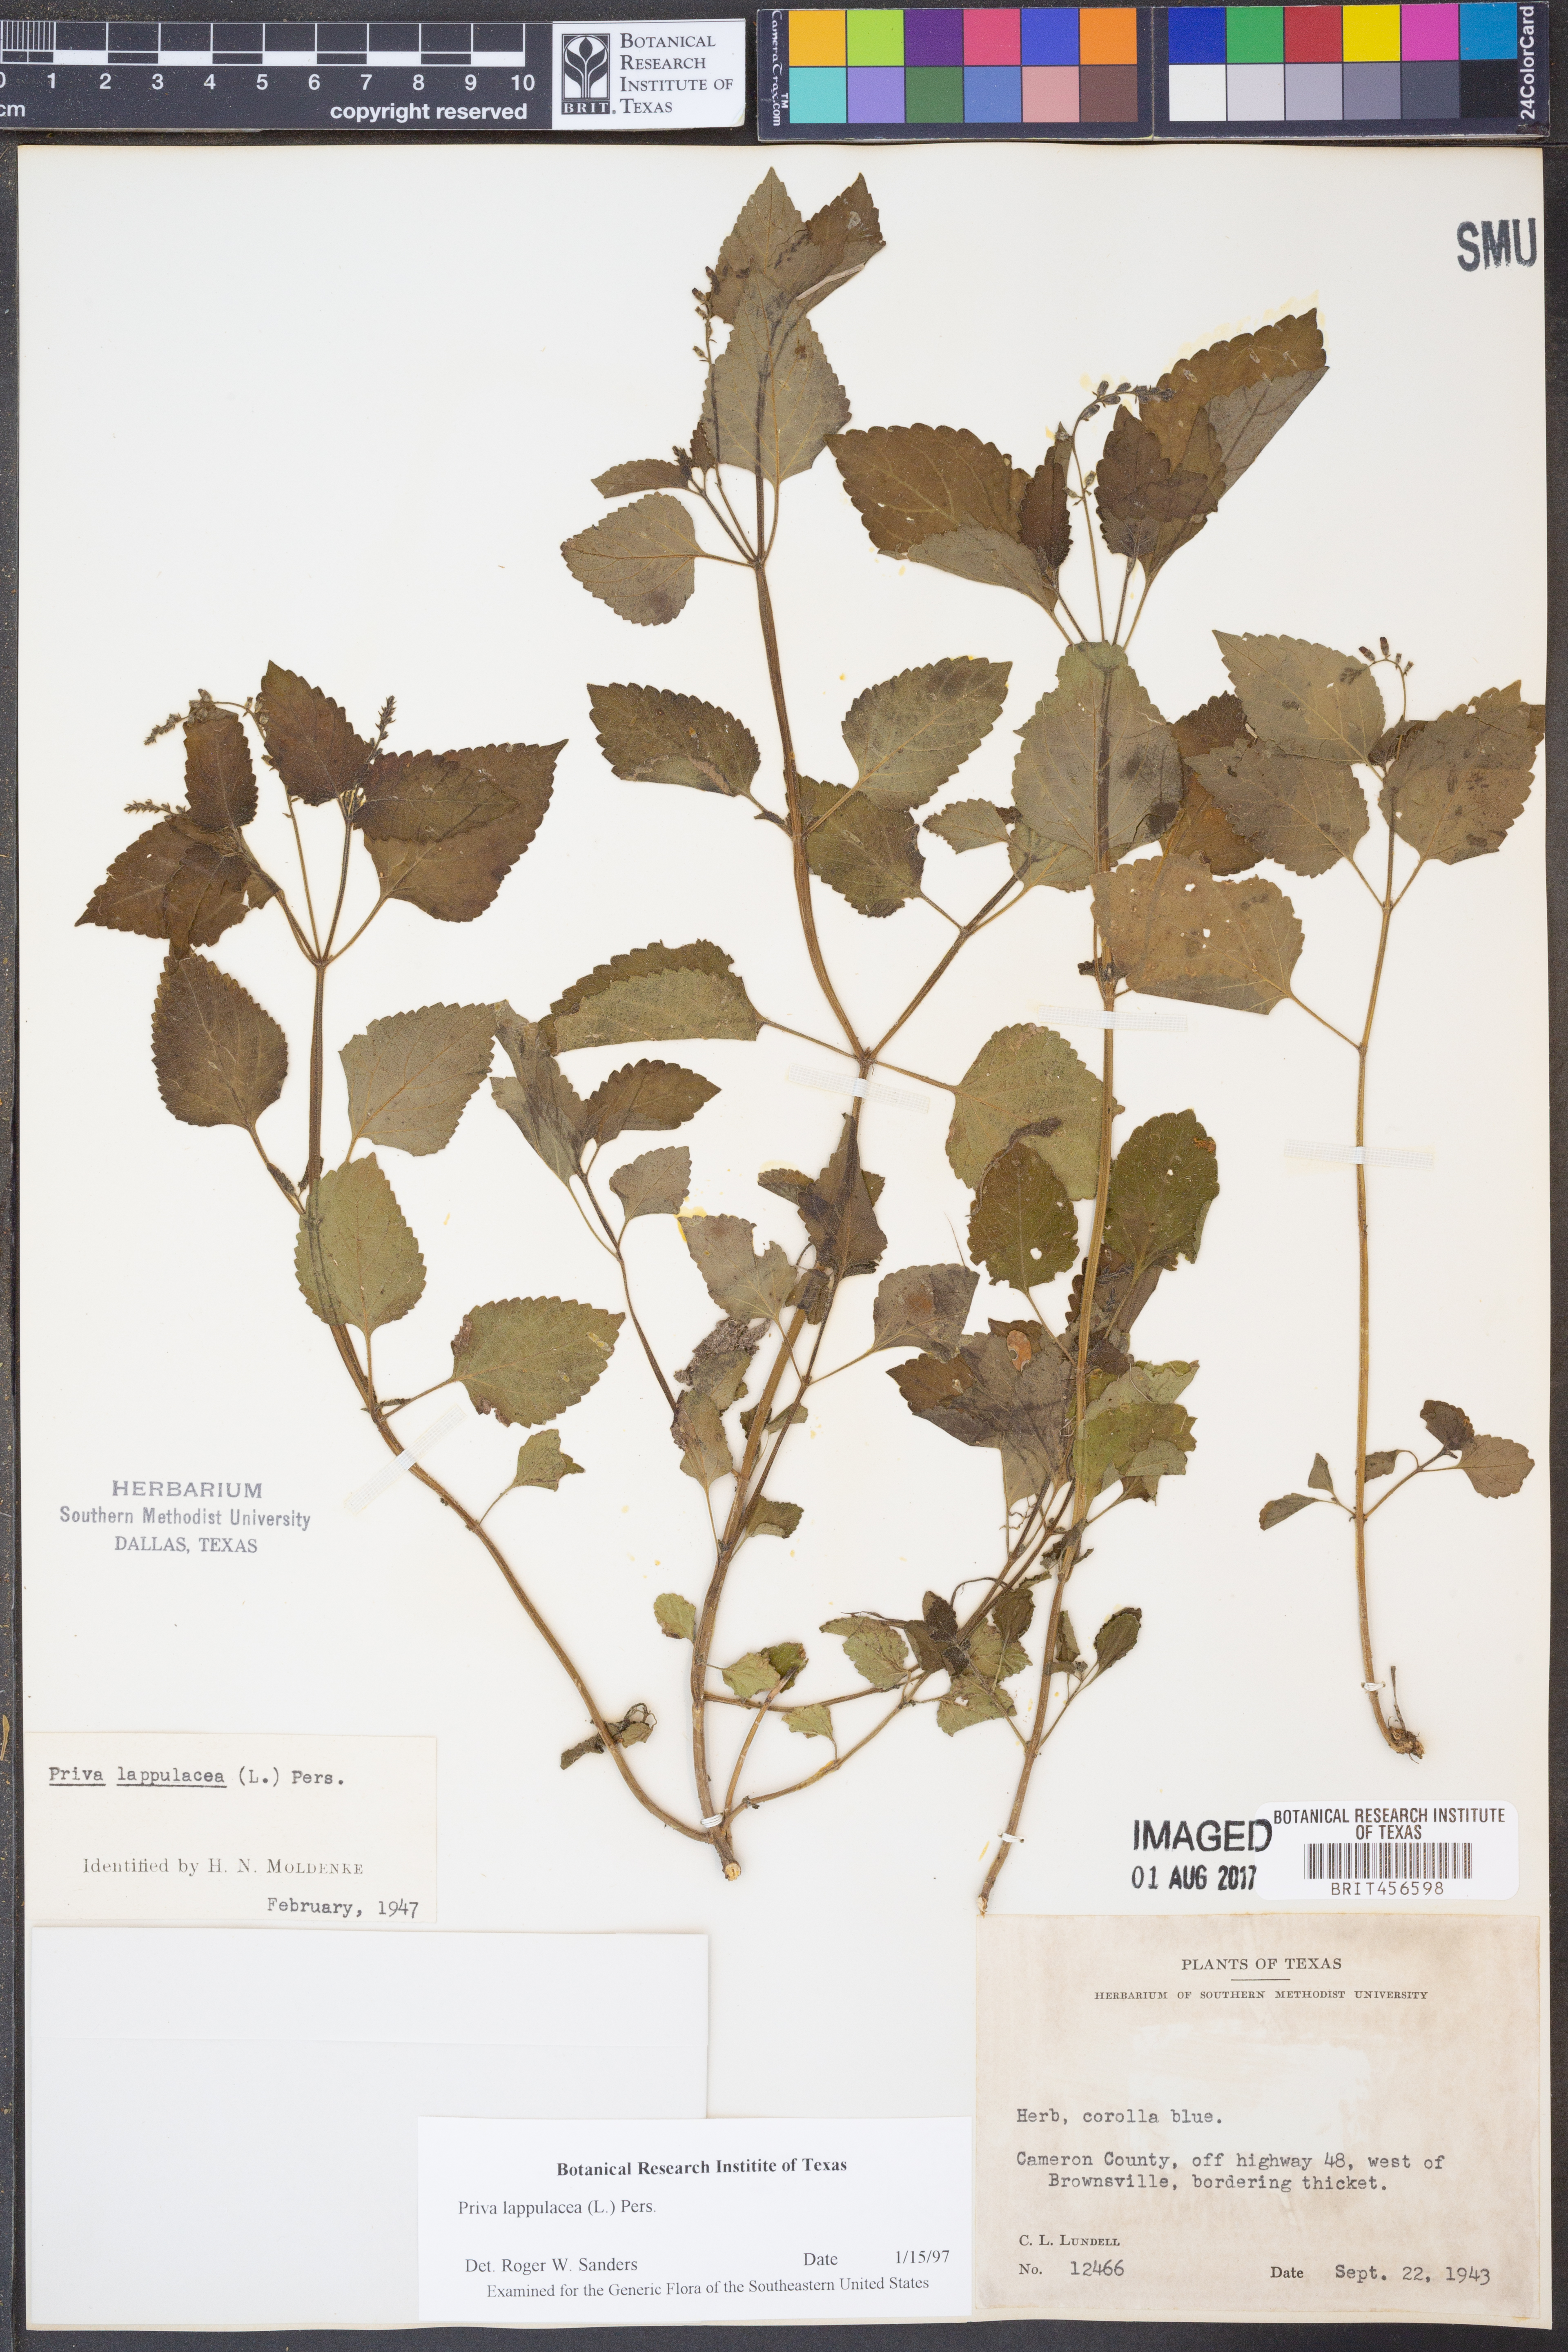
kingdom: Plantae
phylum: Tracheophyta
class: Magnoliopsida
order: Lamiales
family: Verbenaceae
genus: Priva
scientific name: Priva lappulacea
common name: Fasten-'pon-coat
